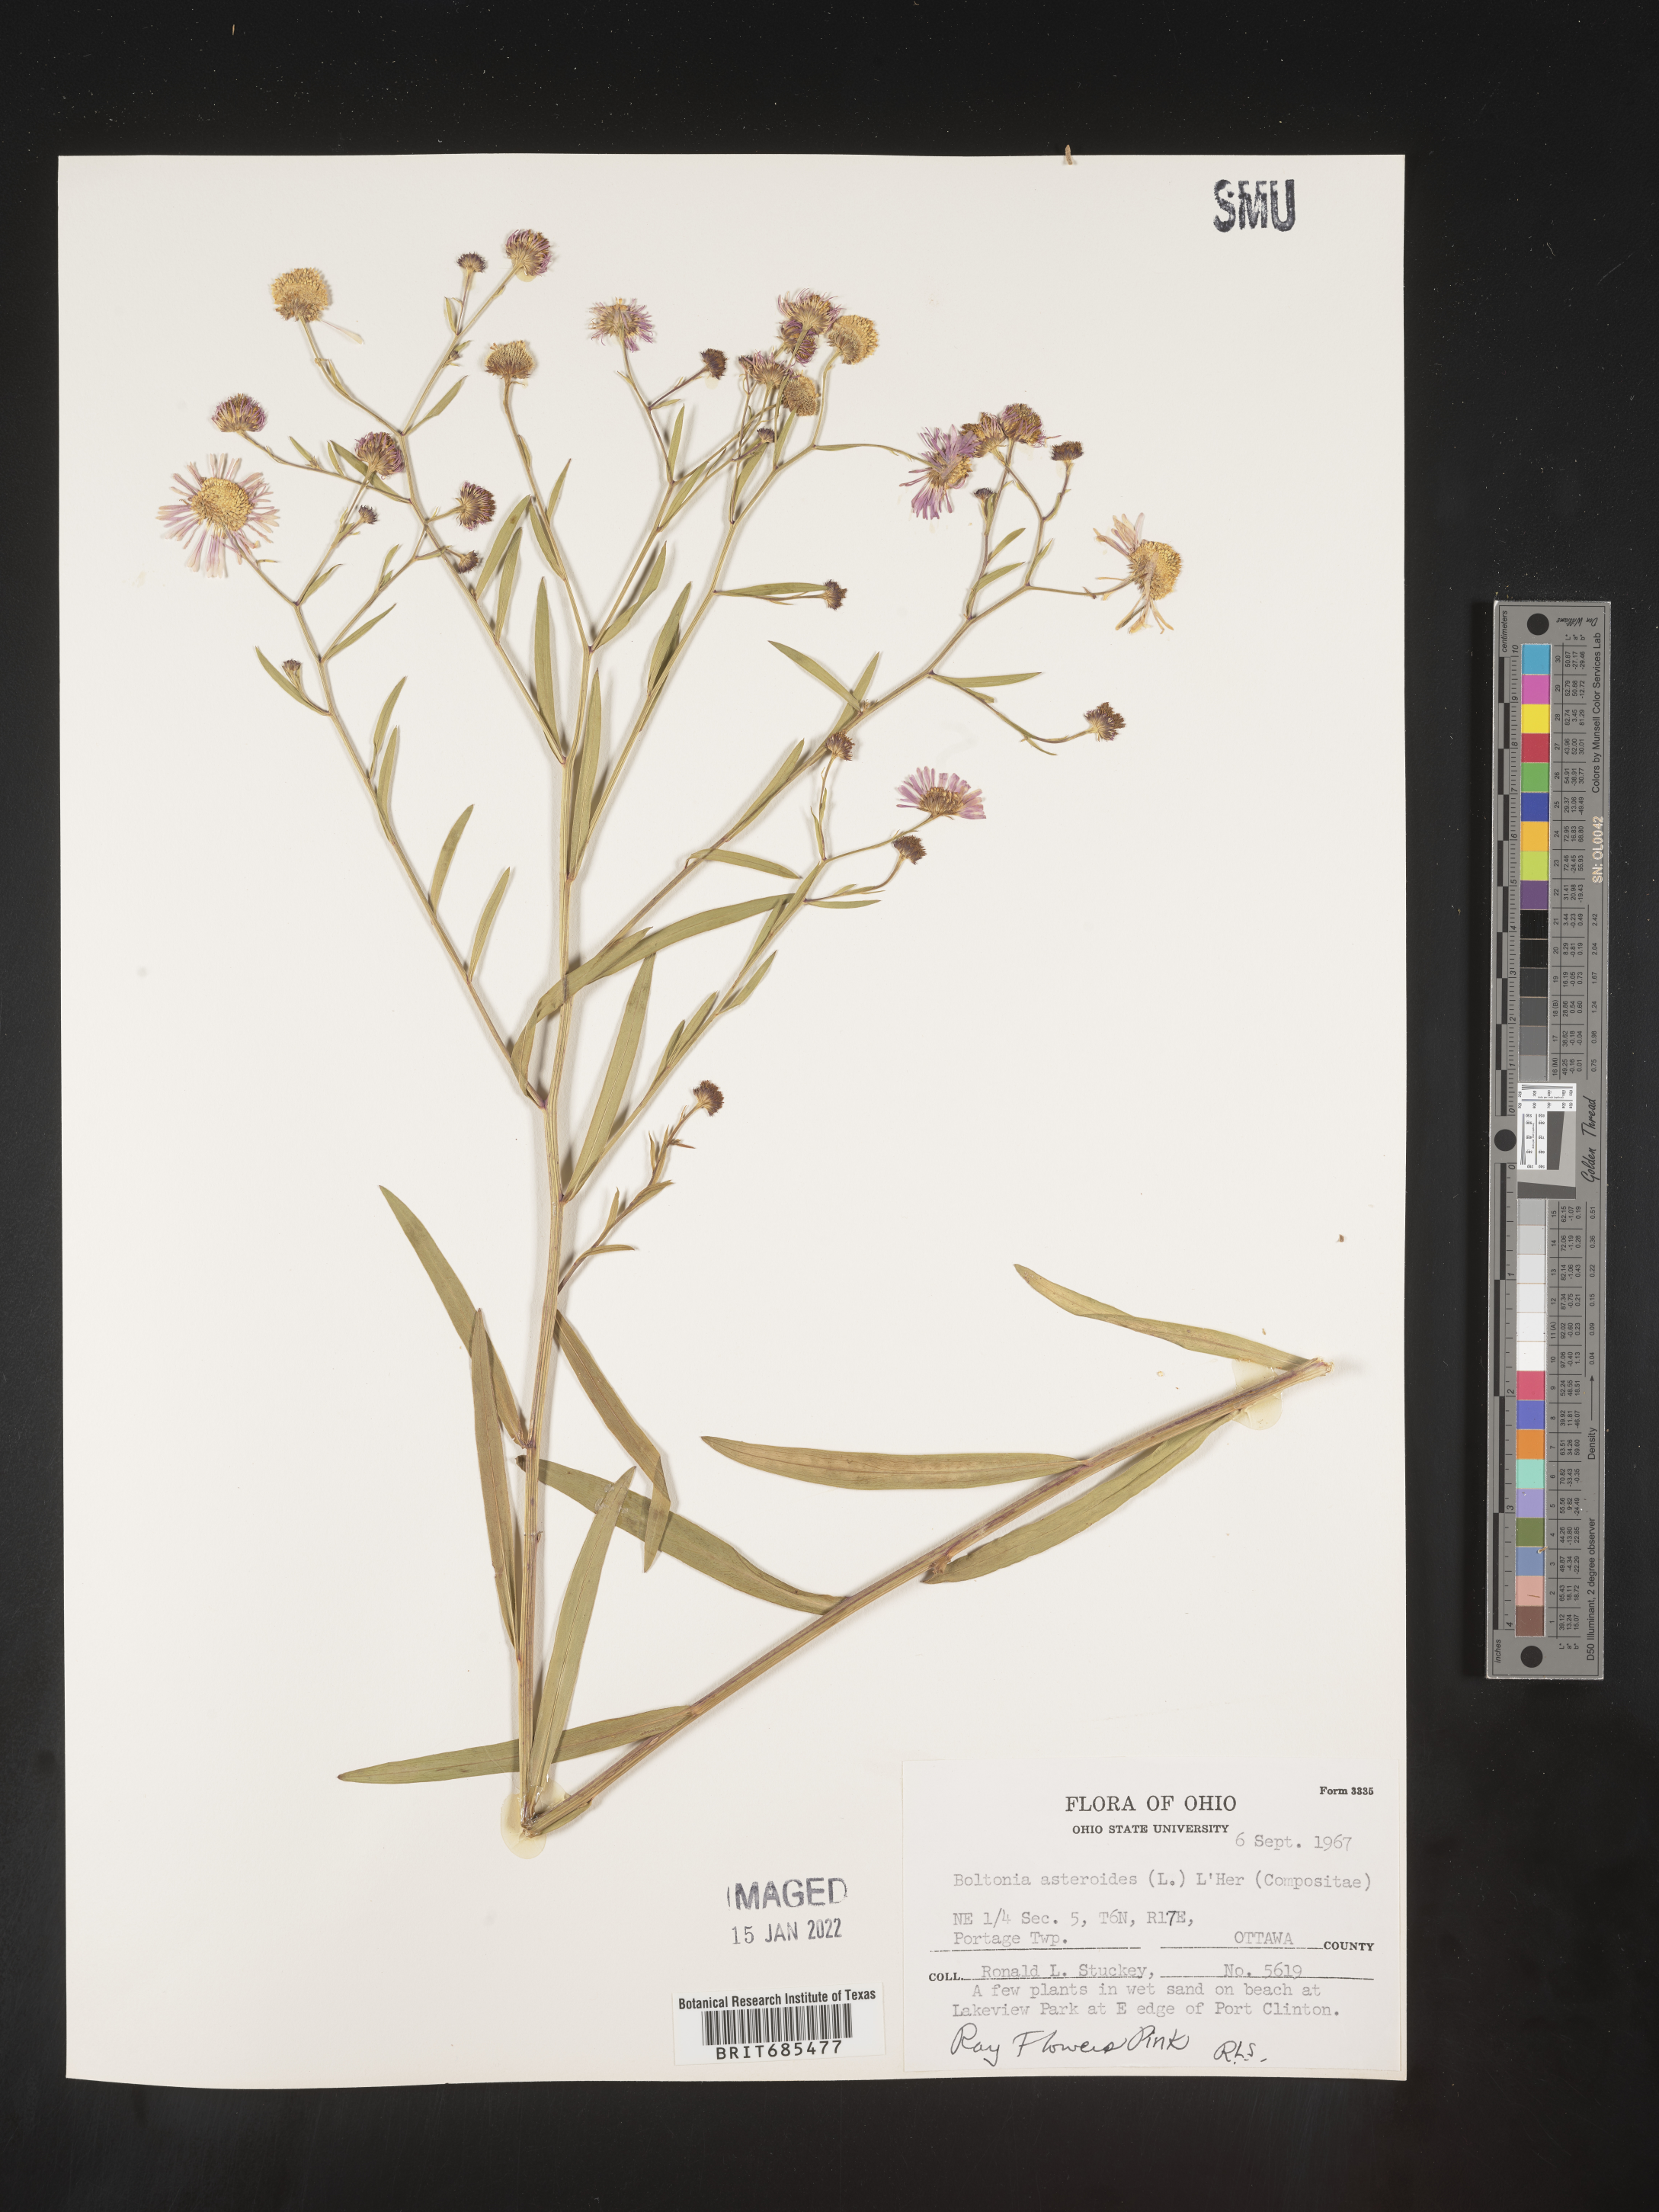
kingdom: Plantae
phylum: Tracheophyta
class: Magnoliopsida
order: Asterales
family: Asteraceae
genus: Boltonia
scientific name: Boltonia asteroides
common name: False chamomile
